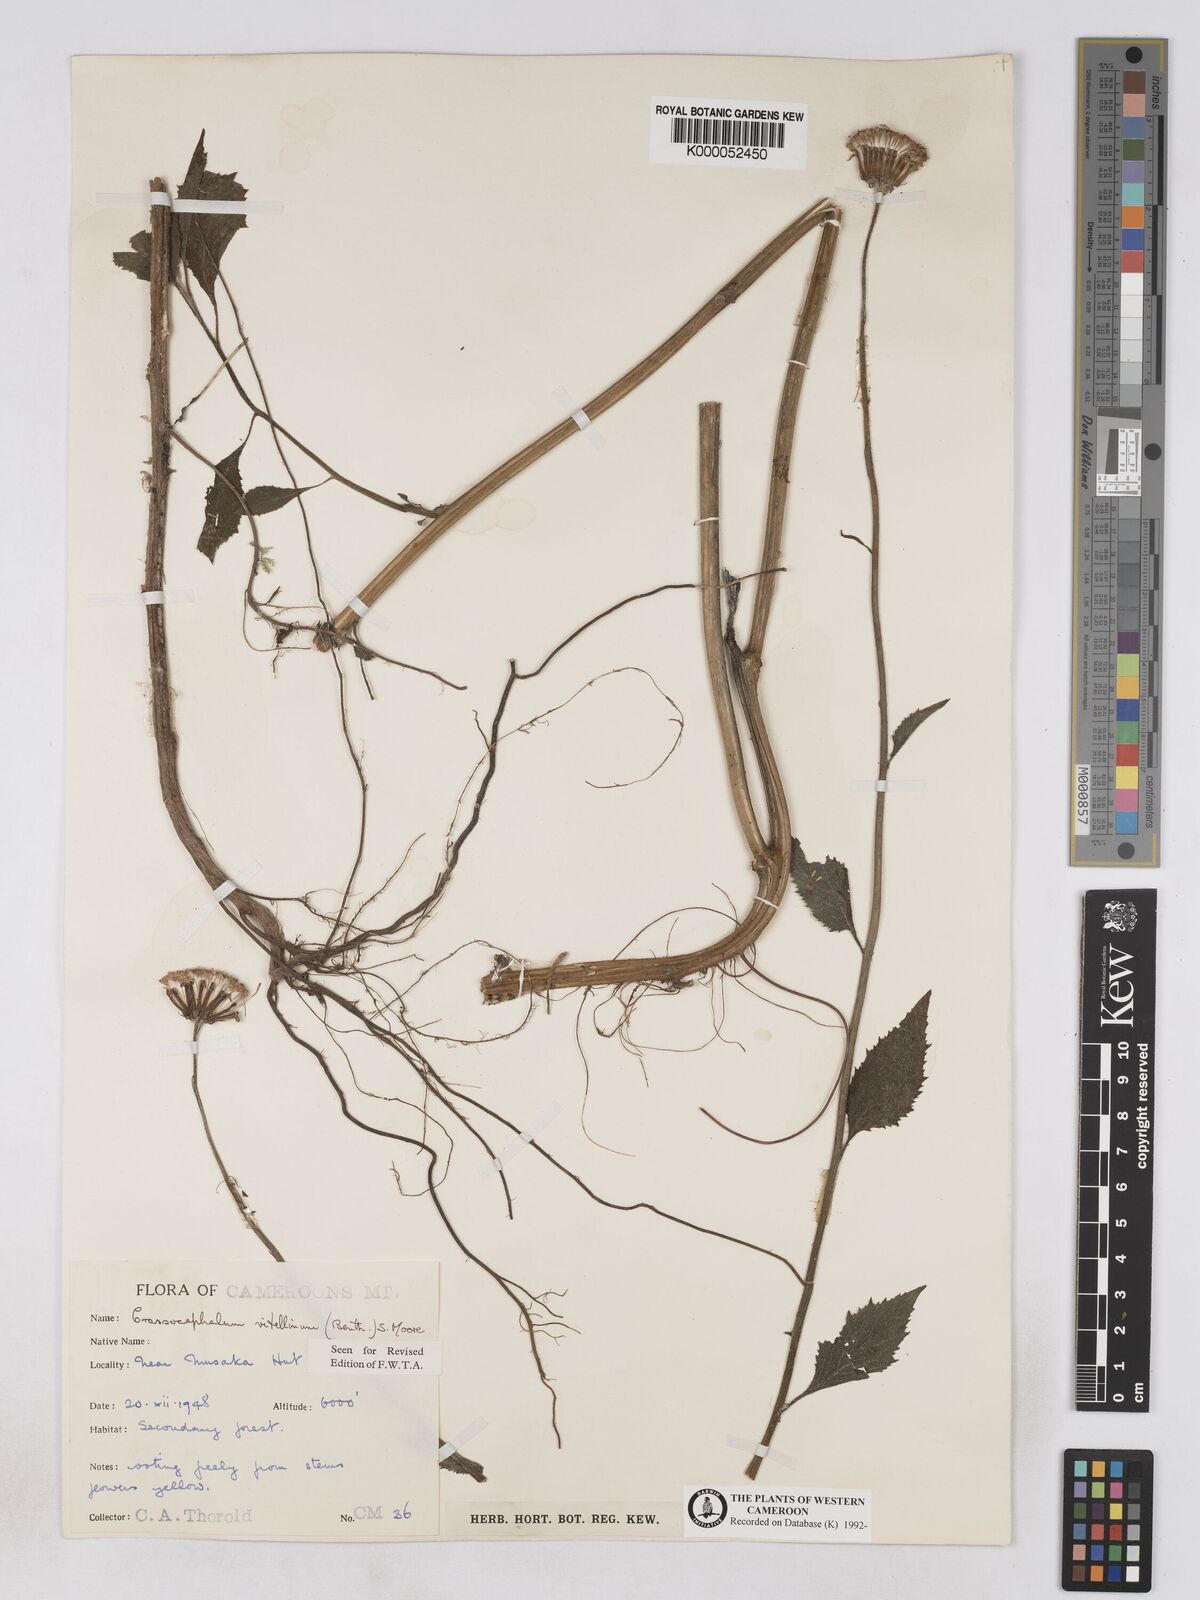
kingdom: Plantae
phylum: Tracheophyta
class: Magnoliopsida
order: Asterales
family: Asteraceae
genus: Crassocephalum
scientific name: Crassocephalum bougheyanum
